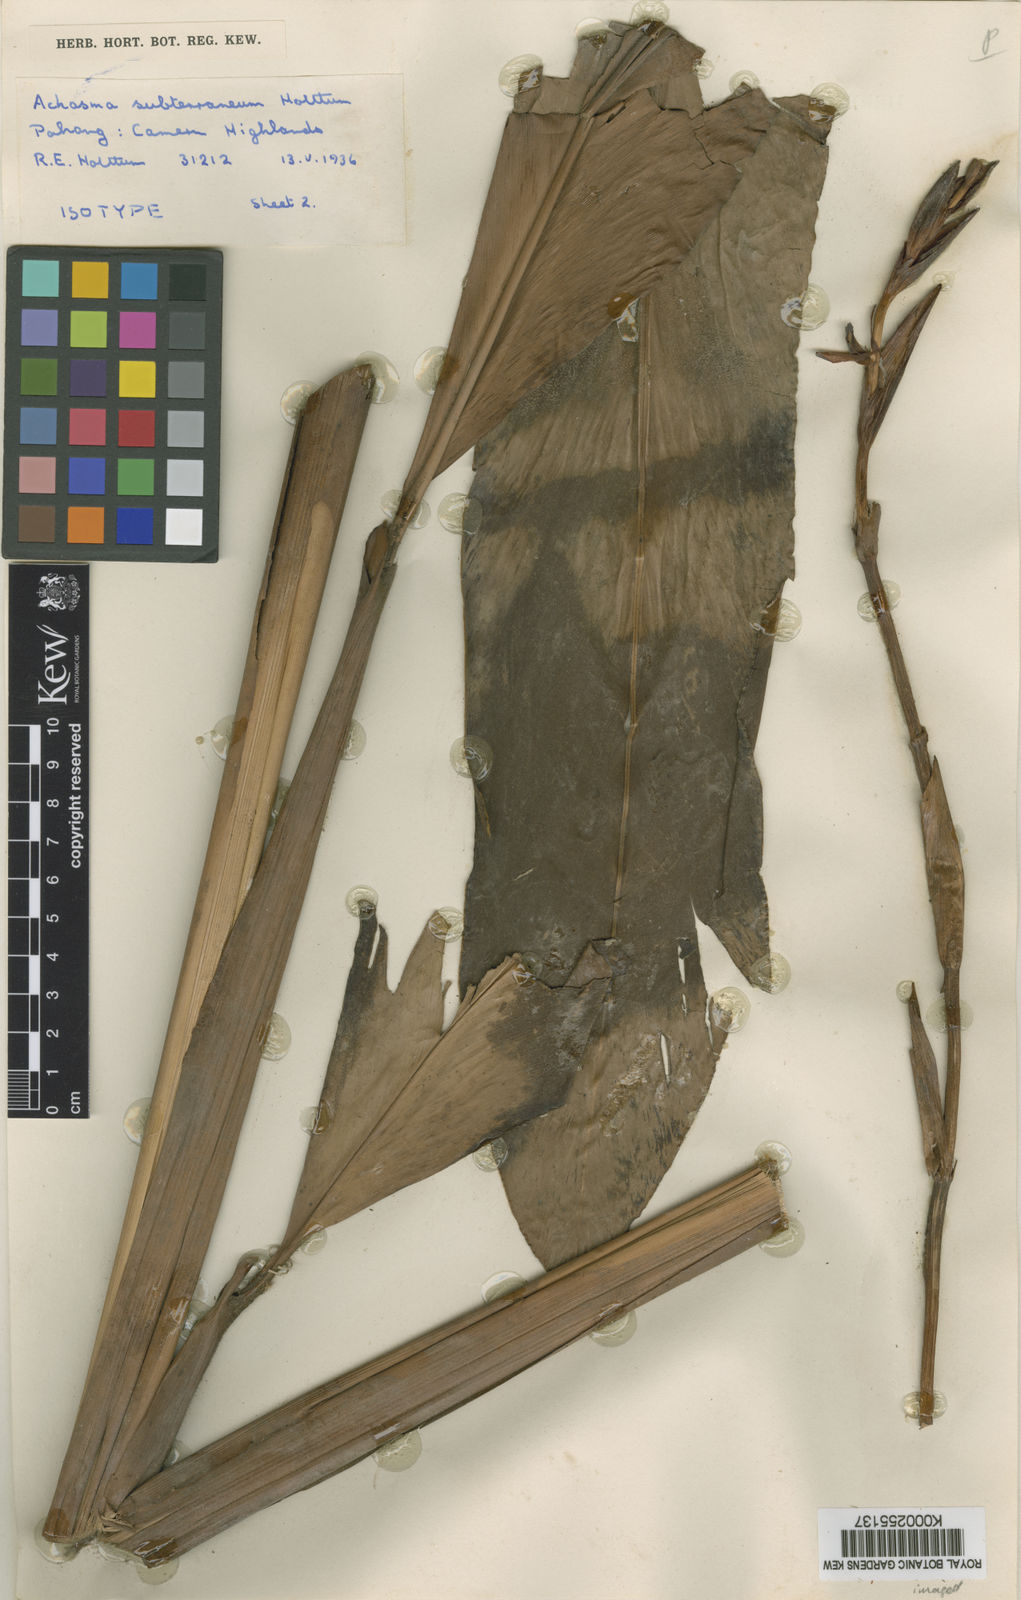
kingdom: Plantae
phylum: Tracheophyta
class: Liliopsida
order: Zingiberales
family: Zingiberaceae
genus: Etlingera
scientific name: Etlingera subterranea
